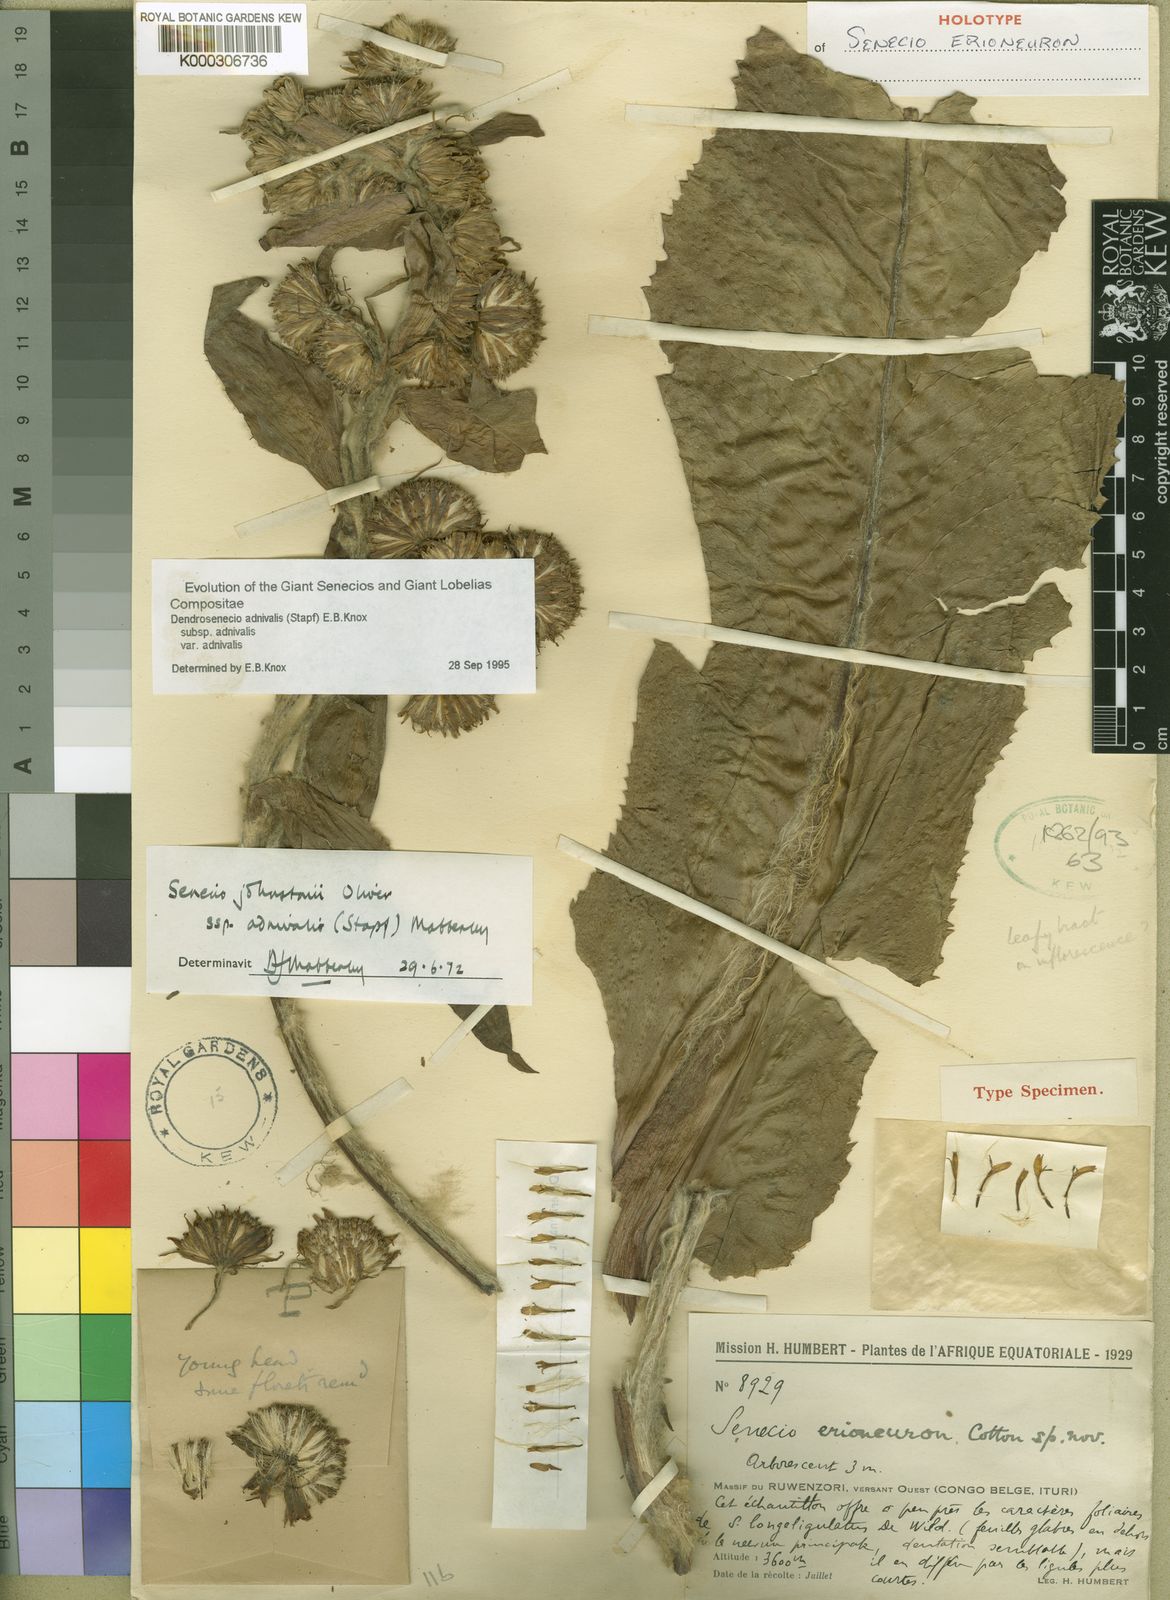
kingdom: Plantae
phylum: Tracheophyta
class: Magnoliopsida
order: Asterales
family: Asteraceae
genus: Senecio
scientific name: Senecio
